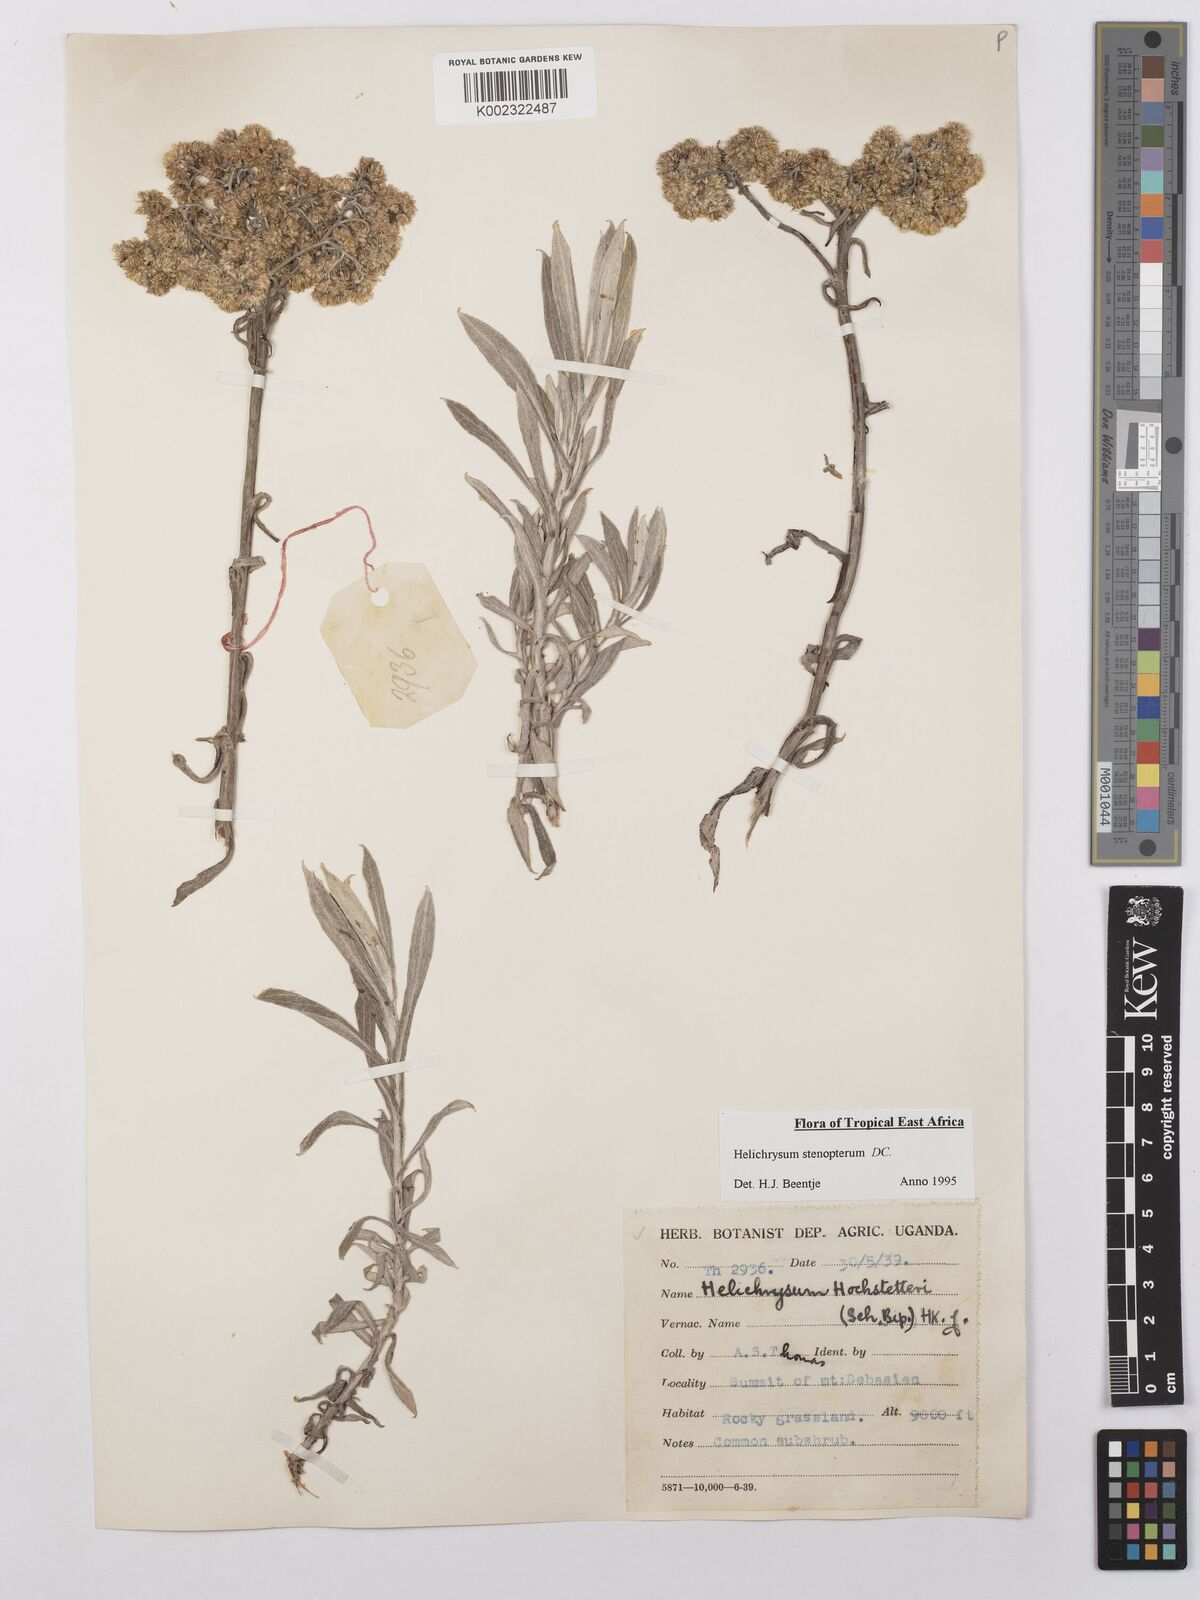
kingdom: Plantae
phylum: Tracheophyta
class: Magnoliopsida
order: Asterales
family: Asteraceae
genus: Helichrysum
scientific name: Helichrysum stenopterum
